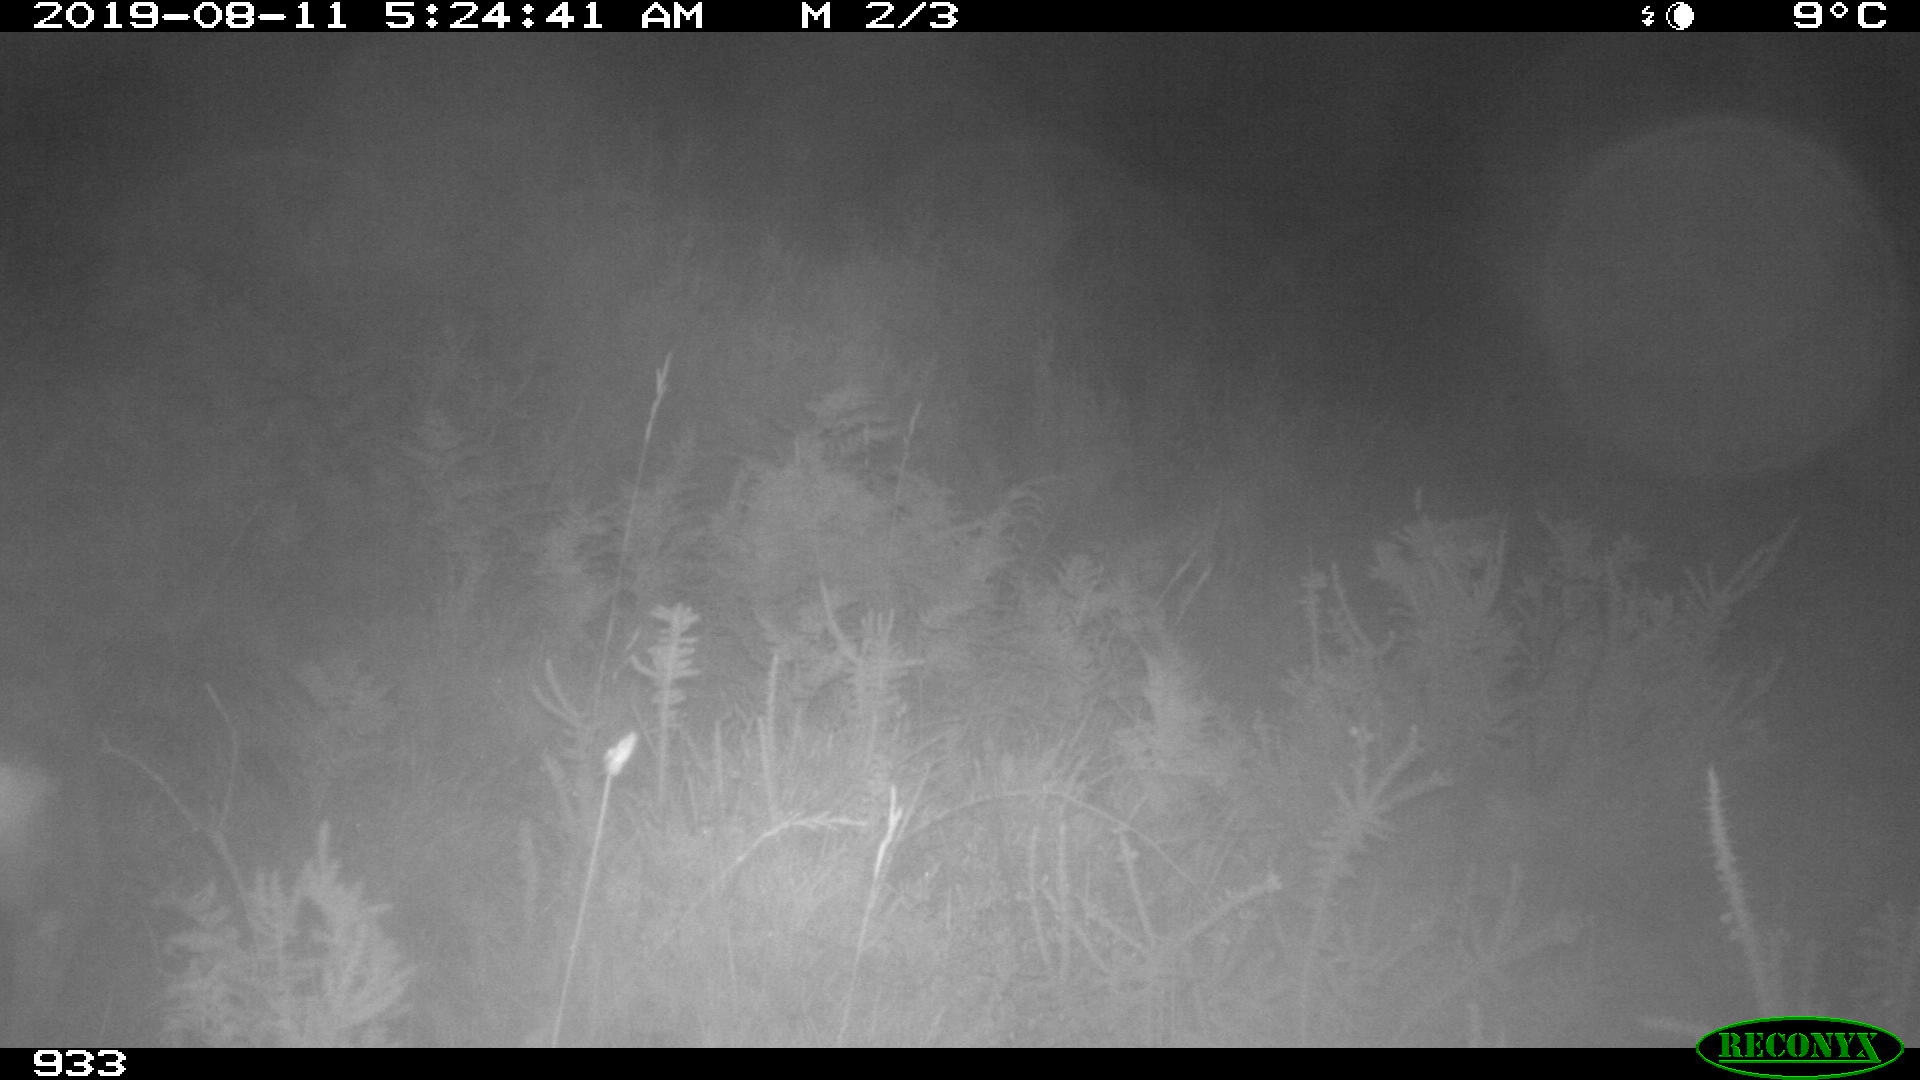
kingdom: Animalia
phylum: Chordata
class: Mammalia
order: Artiodactyla
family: Cervidae
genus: Capreolus
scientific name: Capreolus capreolus
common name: Western roe deer
